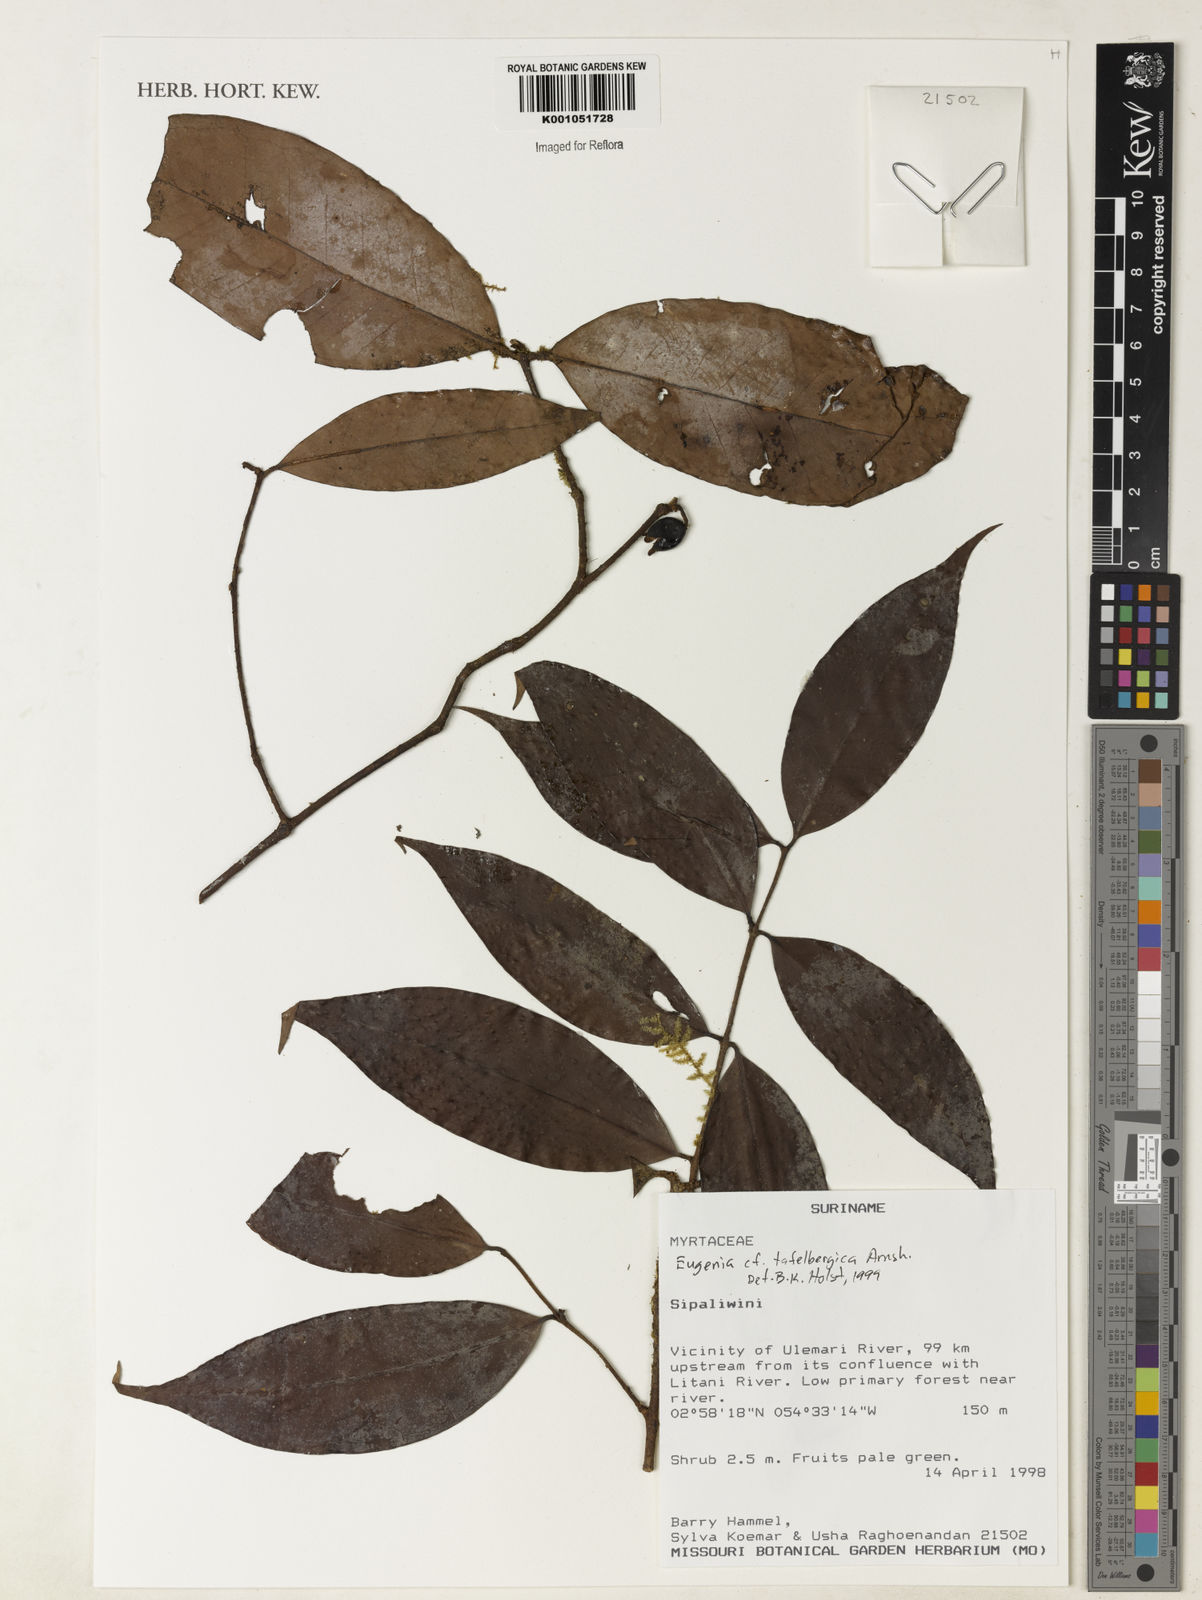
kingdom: Plantae
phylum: Tracheophyta
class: Magnoliopsida
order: Myrtales
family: Myrtaceae
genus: Eugenia
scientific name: Eugenia tafelbergica
